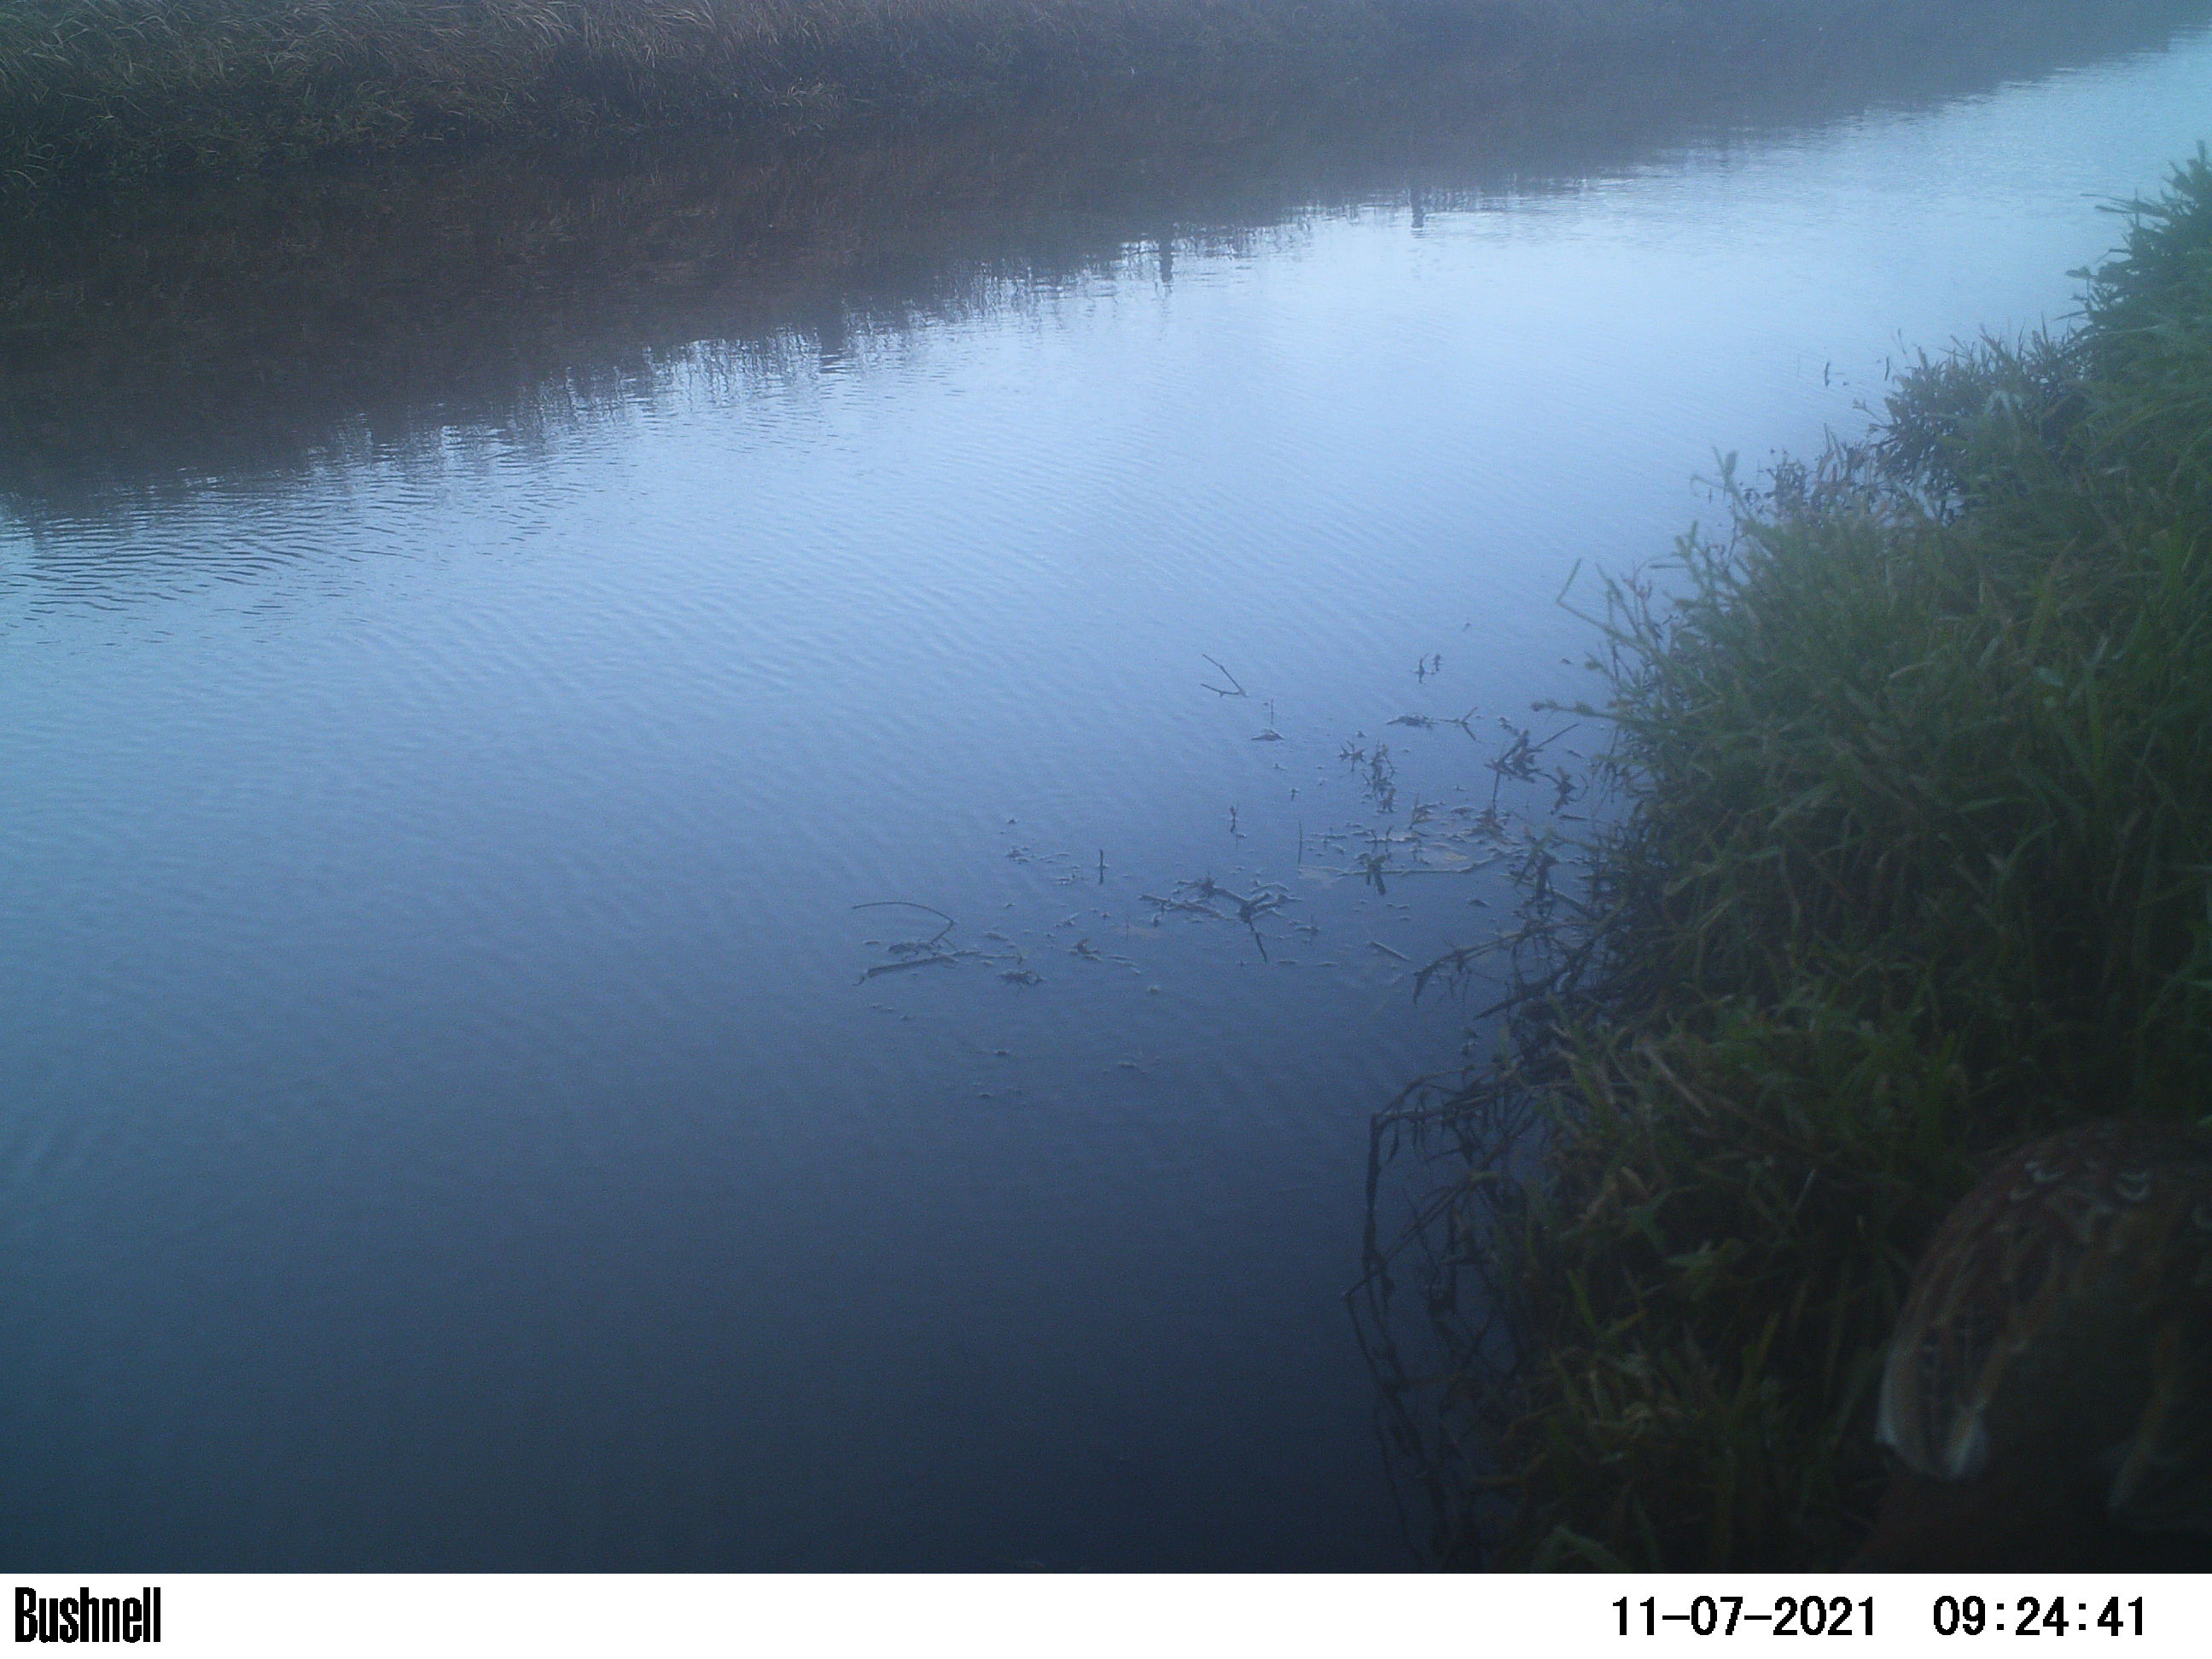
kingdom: Animalia
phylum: Chordata
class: Aves
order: Galliformes
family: Phasianidae
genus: Phasianus
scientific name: Phasianus colchicus
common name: Common pheasant
